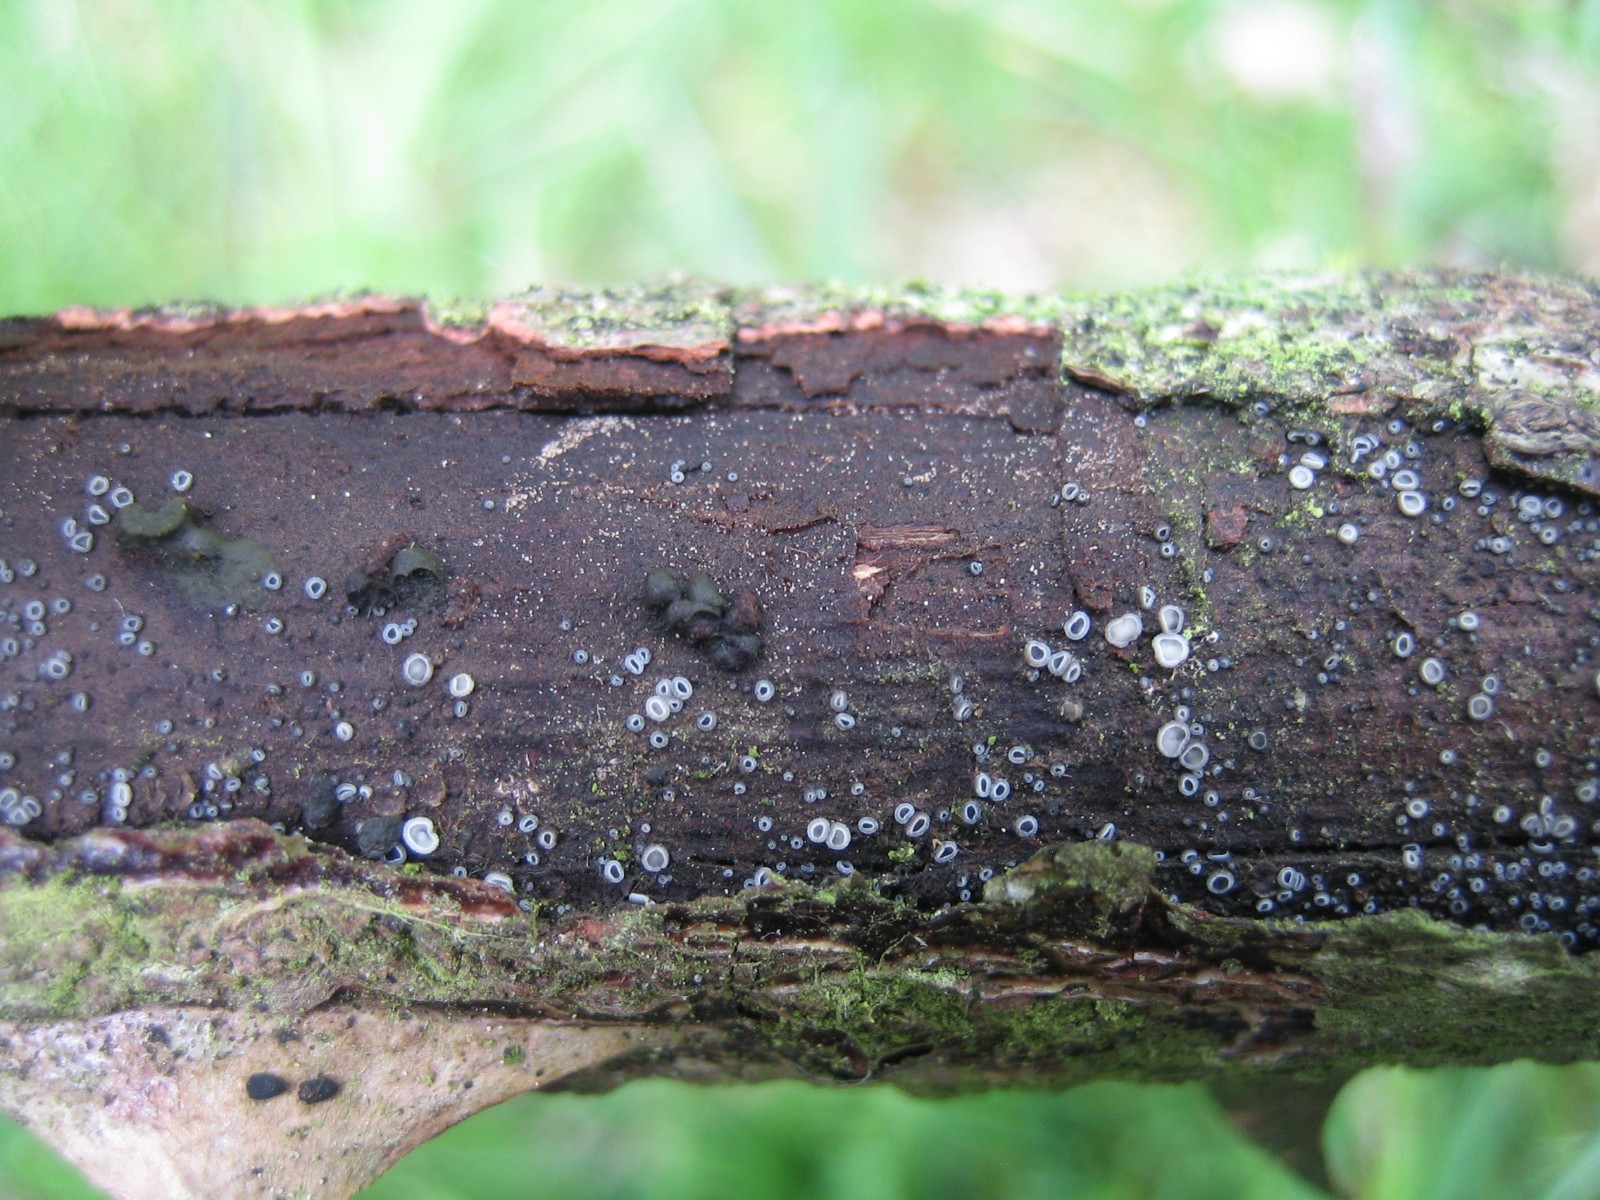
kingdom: Fungi
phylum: Ascomycota
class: Leotiomycetes
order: Helotiales
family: Mollisiaceae
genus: Mollisia
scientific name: Mollisia
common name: gråskive
